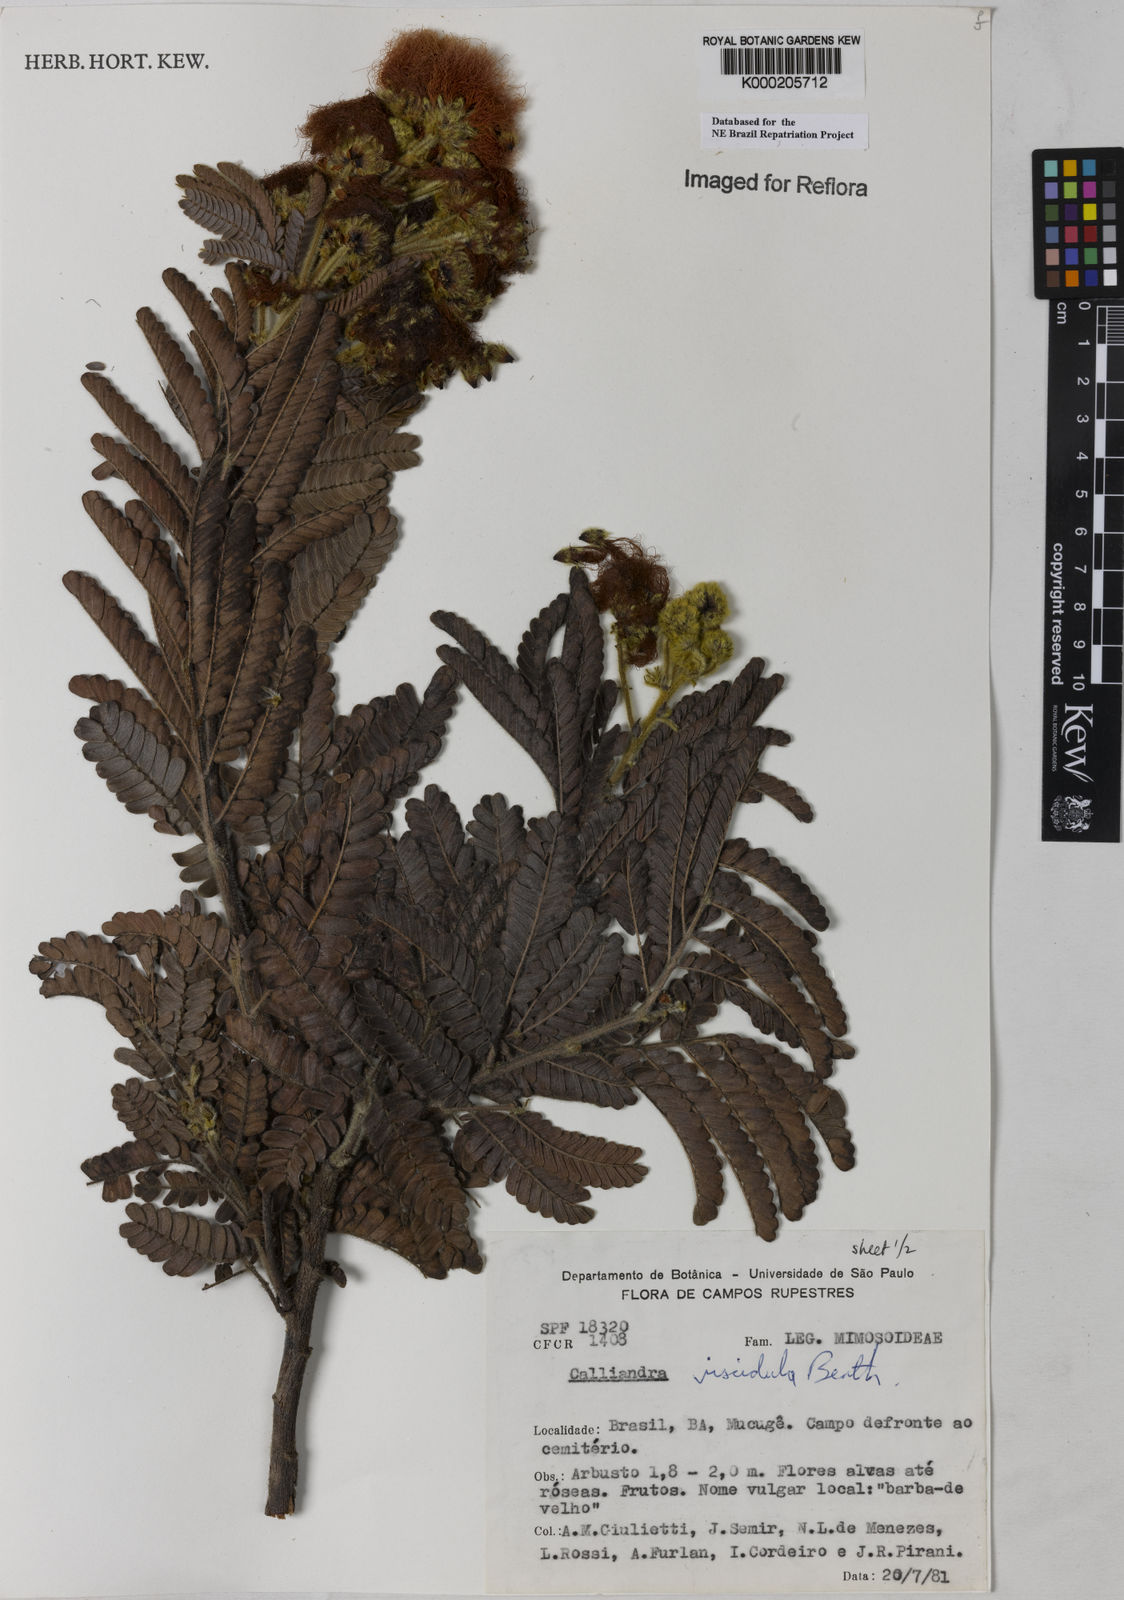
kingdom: Plantae
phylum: Tracheophyta
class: Magnoliopsida
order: Fabales
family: Fabaceae
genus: Calliandra
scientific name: Calliandra viscidula
